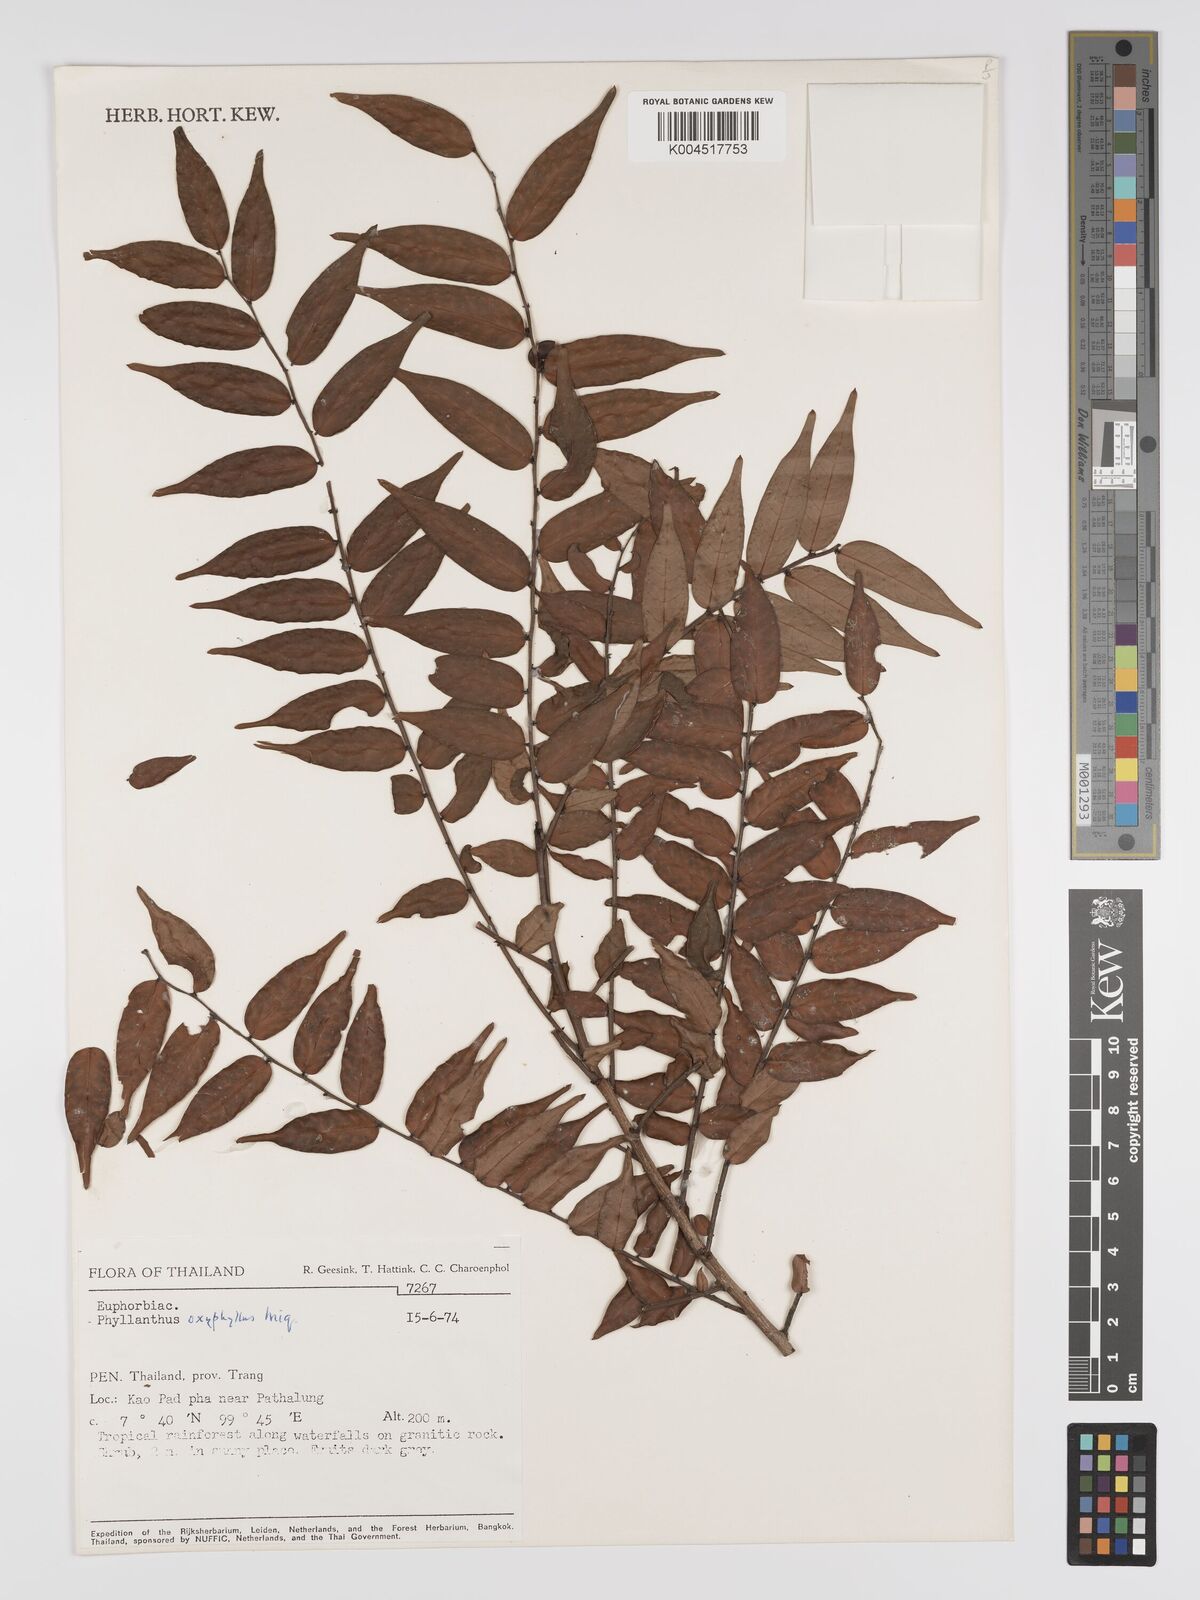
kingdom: Plantae
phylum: Tracheophyta
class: Magnoliopsida
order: Malpighiales
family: Phyllanthaceae
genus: Phyllanthus
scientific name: Phyllanthus
